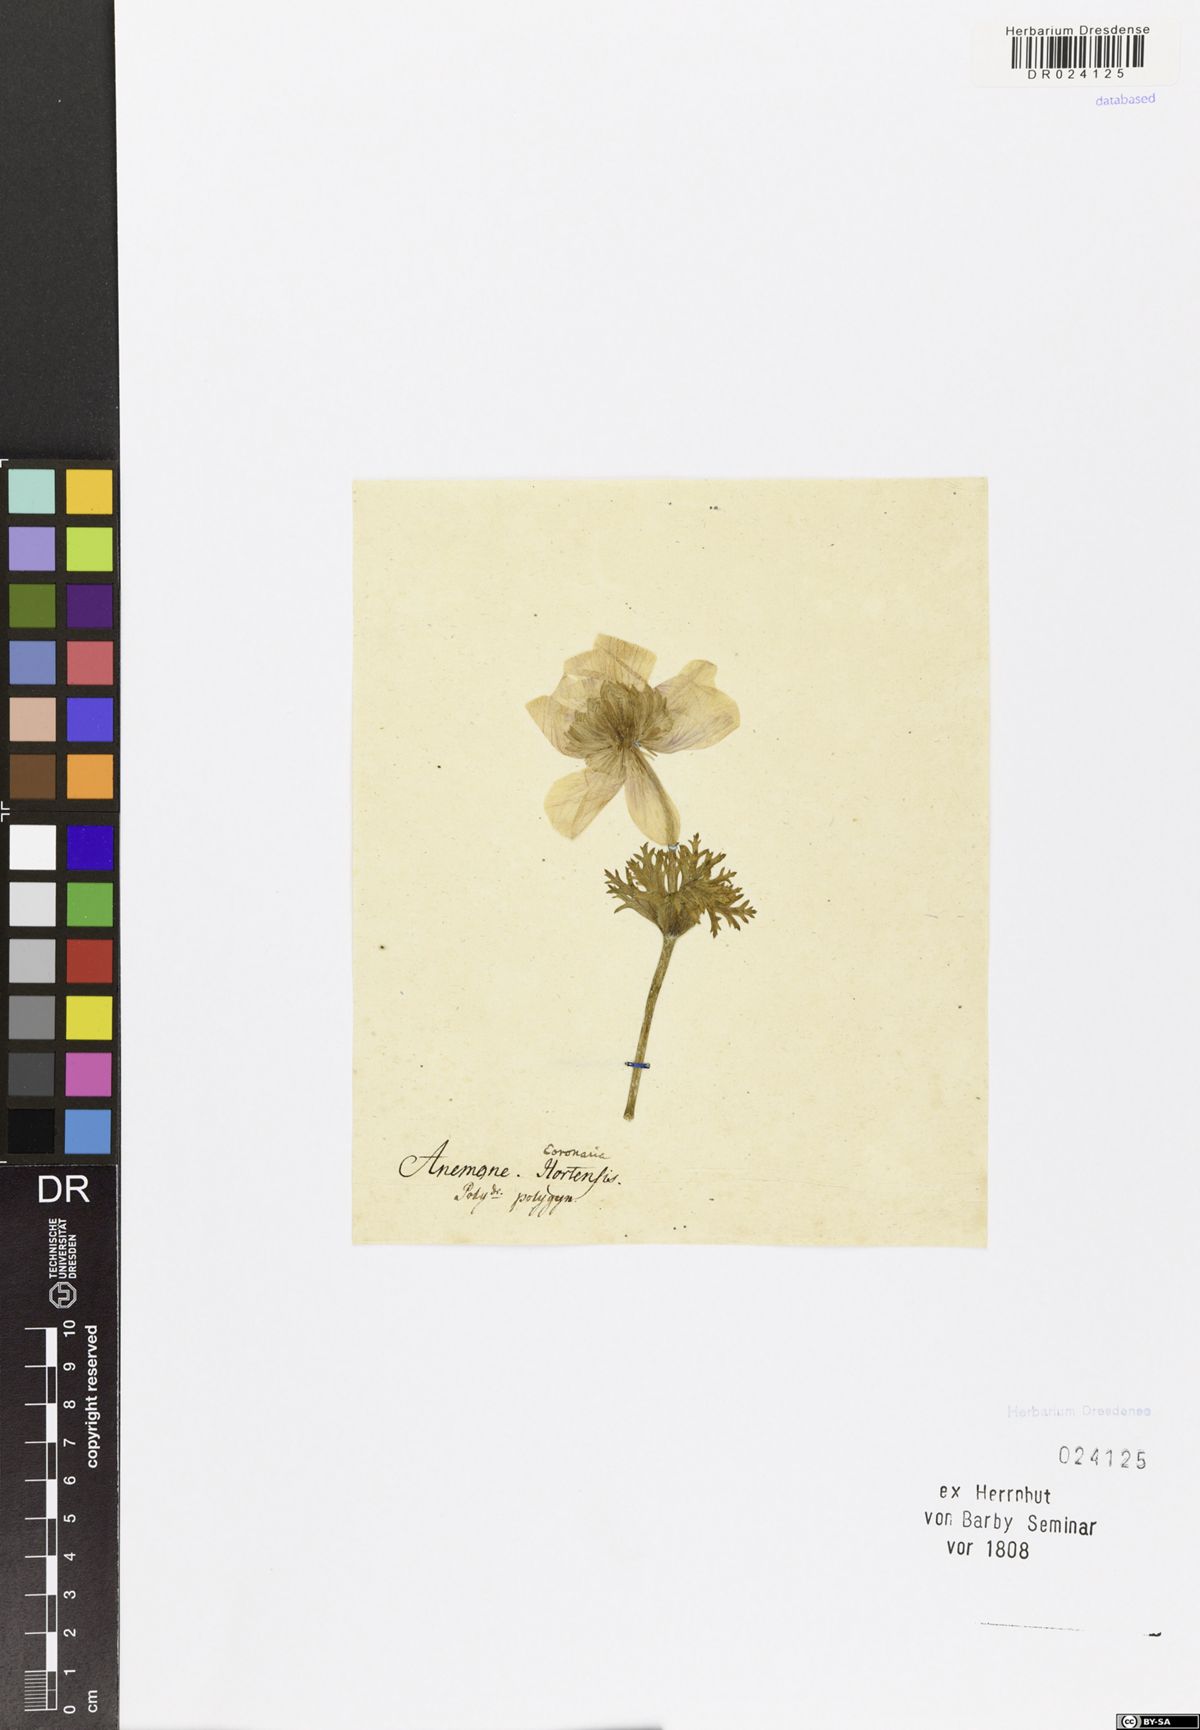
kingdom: Plantae
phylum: Tracheophyta
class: Magnoliopsida
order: Ranunculales
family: Ranunculaceae
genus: Anemone
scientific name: Anemone coronaria
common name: Poppy anemone
